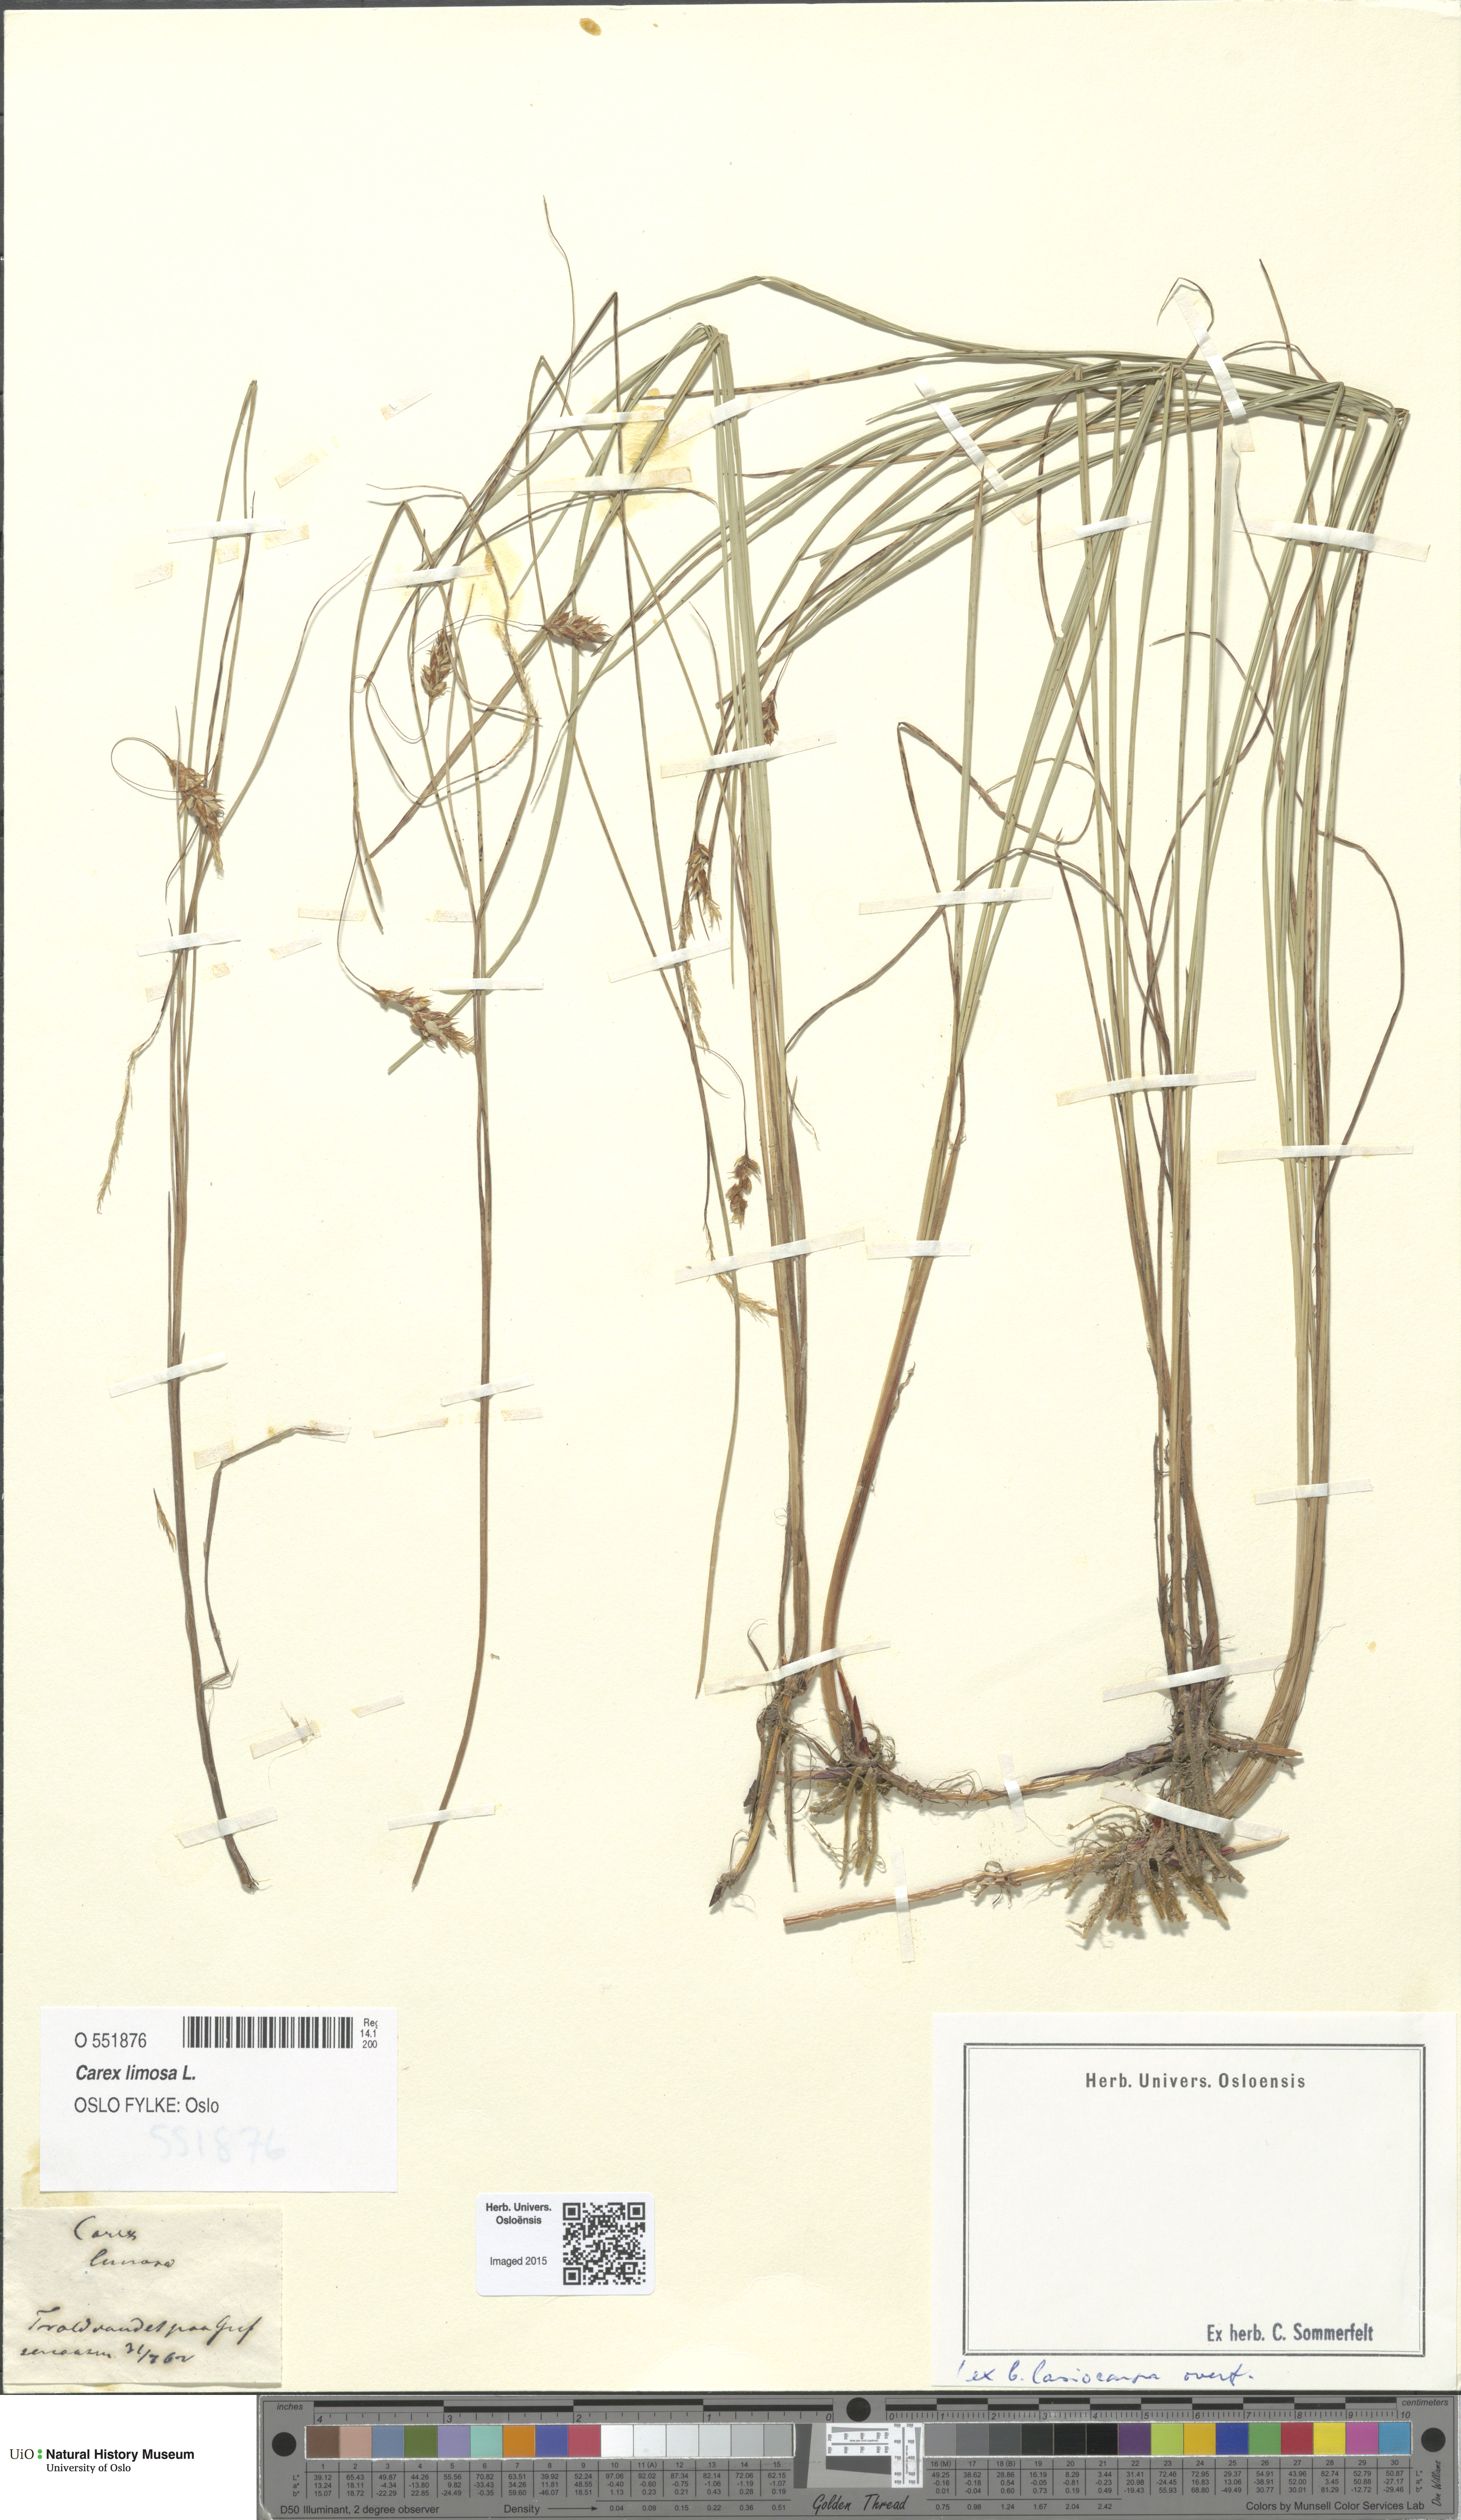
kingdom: Plantae
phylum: Tracheophyta
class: Liliopsida
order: Poales
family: Cyperaceae
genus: Carex
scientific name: Carex limosa
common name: Bog sedge
